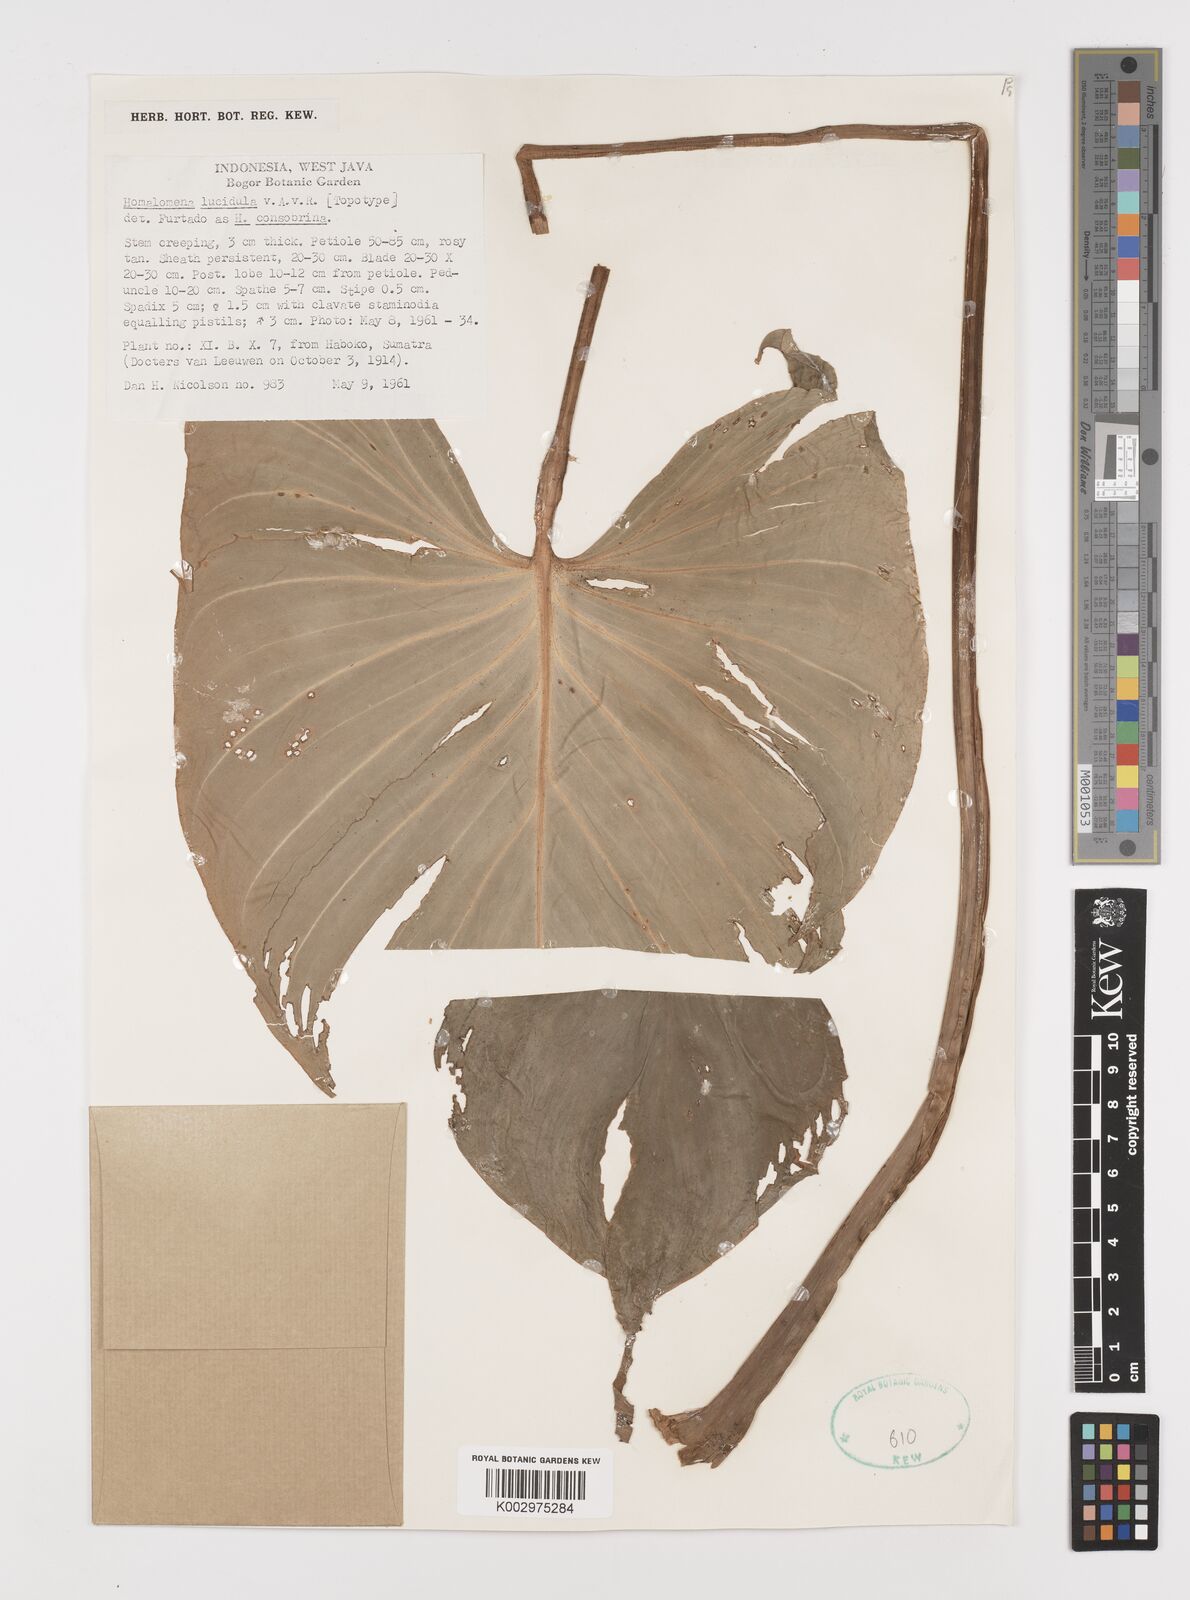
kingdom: Plantae
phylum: Tracheophyta
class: Liliopsida
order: Alismatales
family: Araceae
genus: Homalomena
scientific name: Homalomena consobrina
